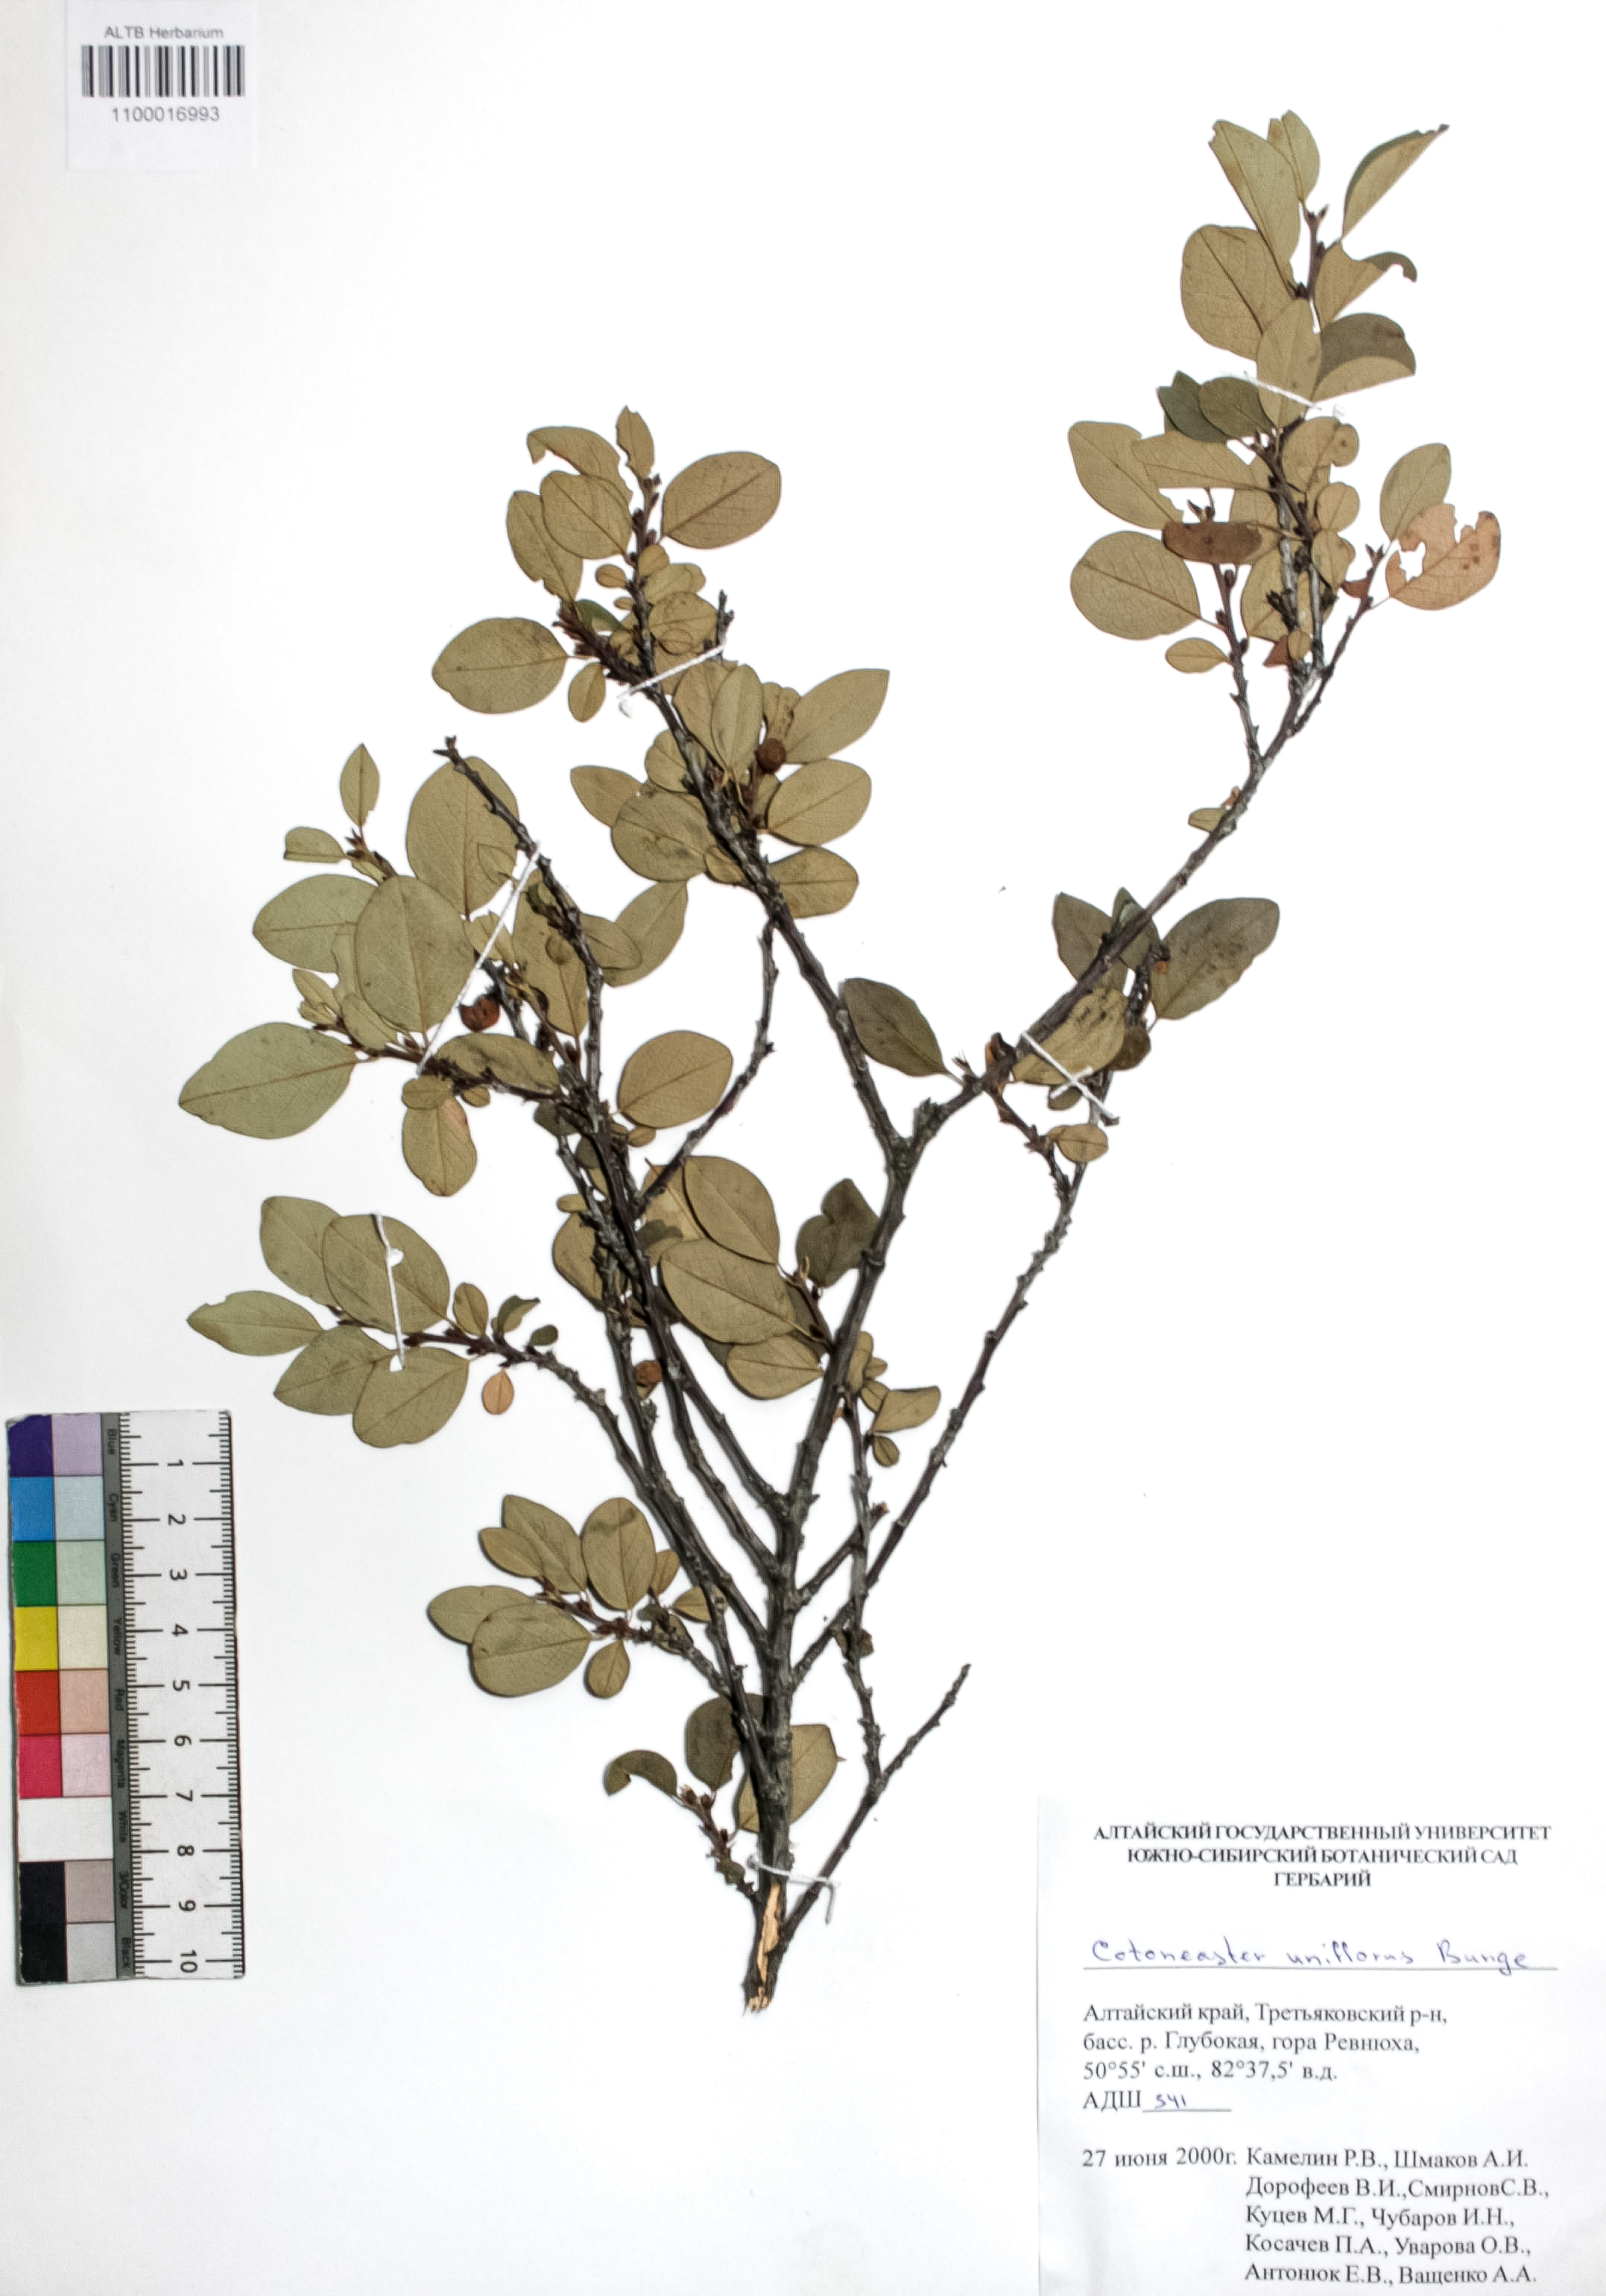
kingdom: Plantae
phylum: Tracheophyta
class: Magnoliopsida
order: Rosales
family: Rosaceae
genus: Cotoneaster
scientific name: Cotoneaster uniflorus
